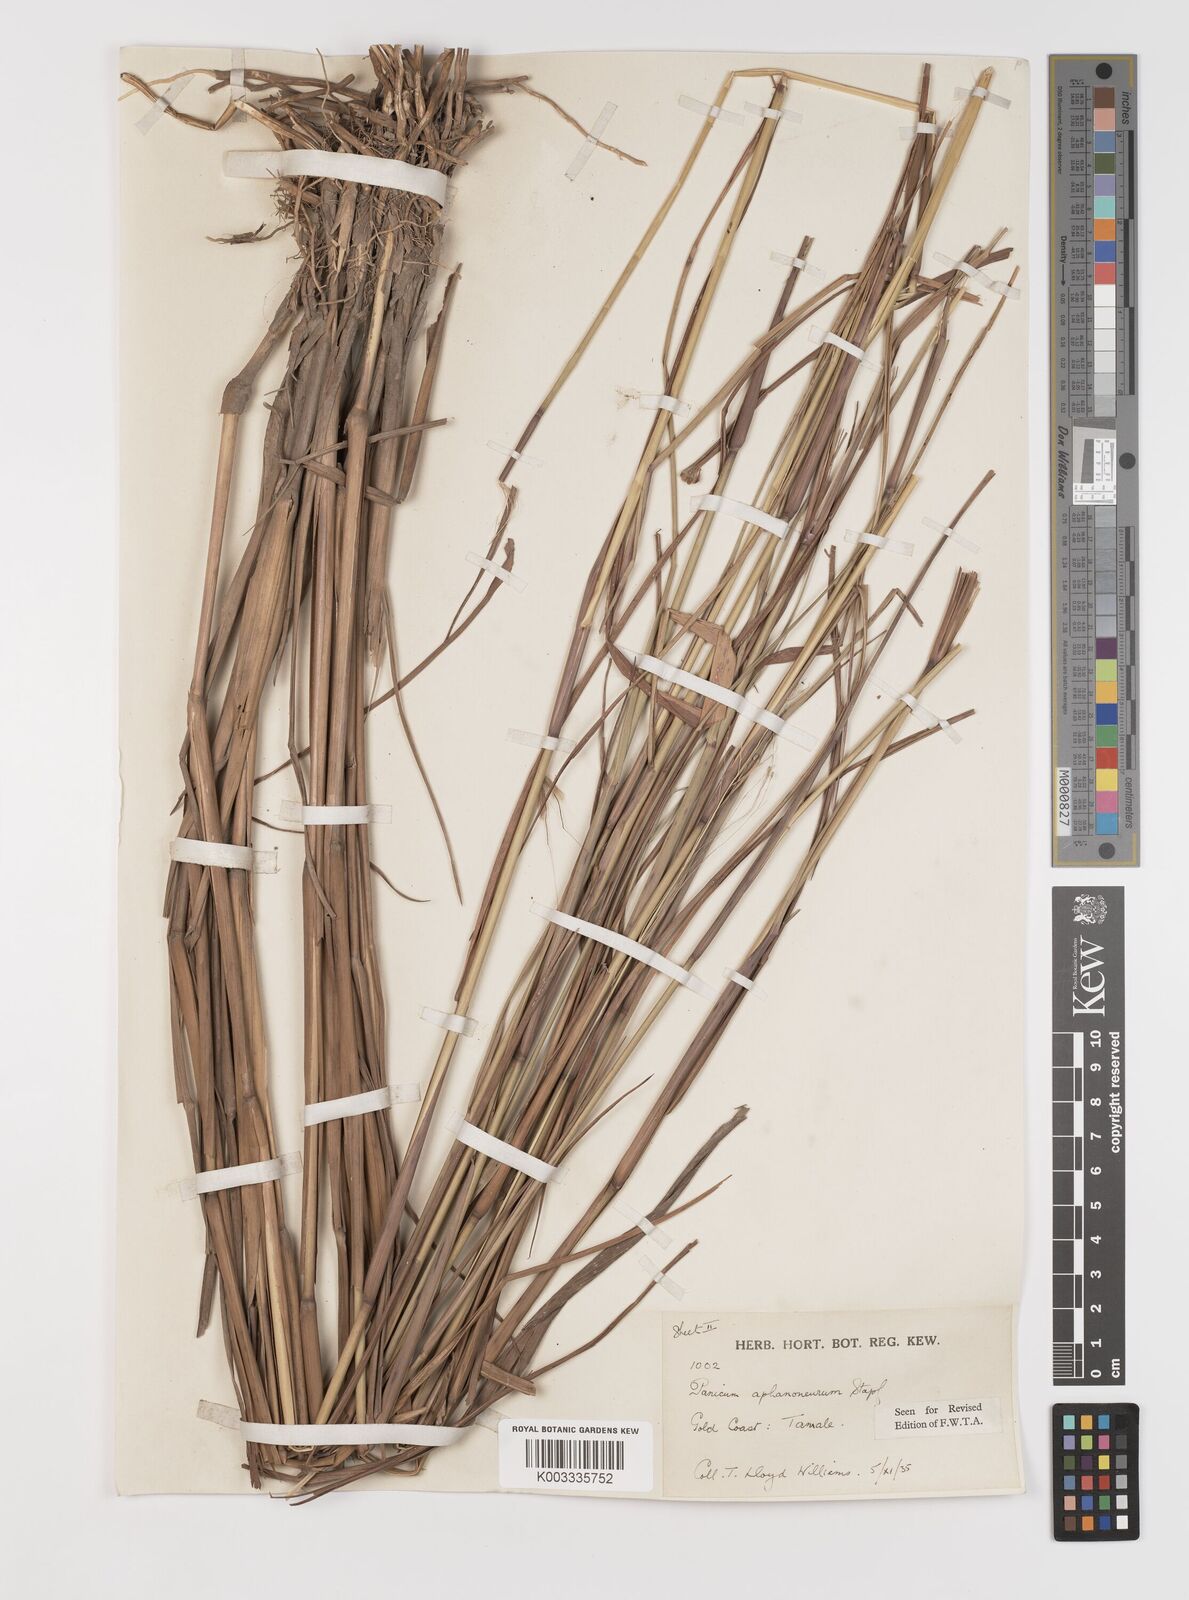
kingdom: Plantae
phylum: Tracheophyta
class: Liliopsida
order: Poales
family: Poaceae
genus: Panicum
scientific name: Panicum fluviicola
